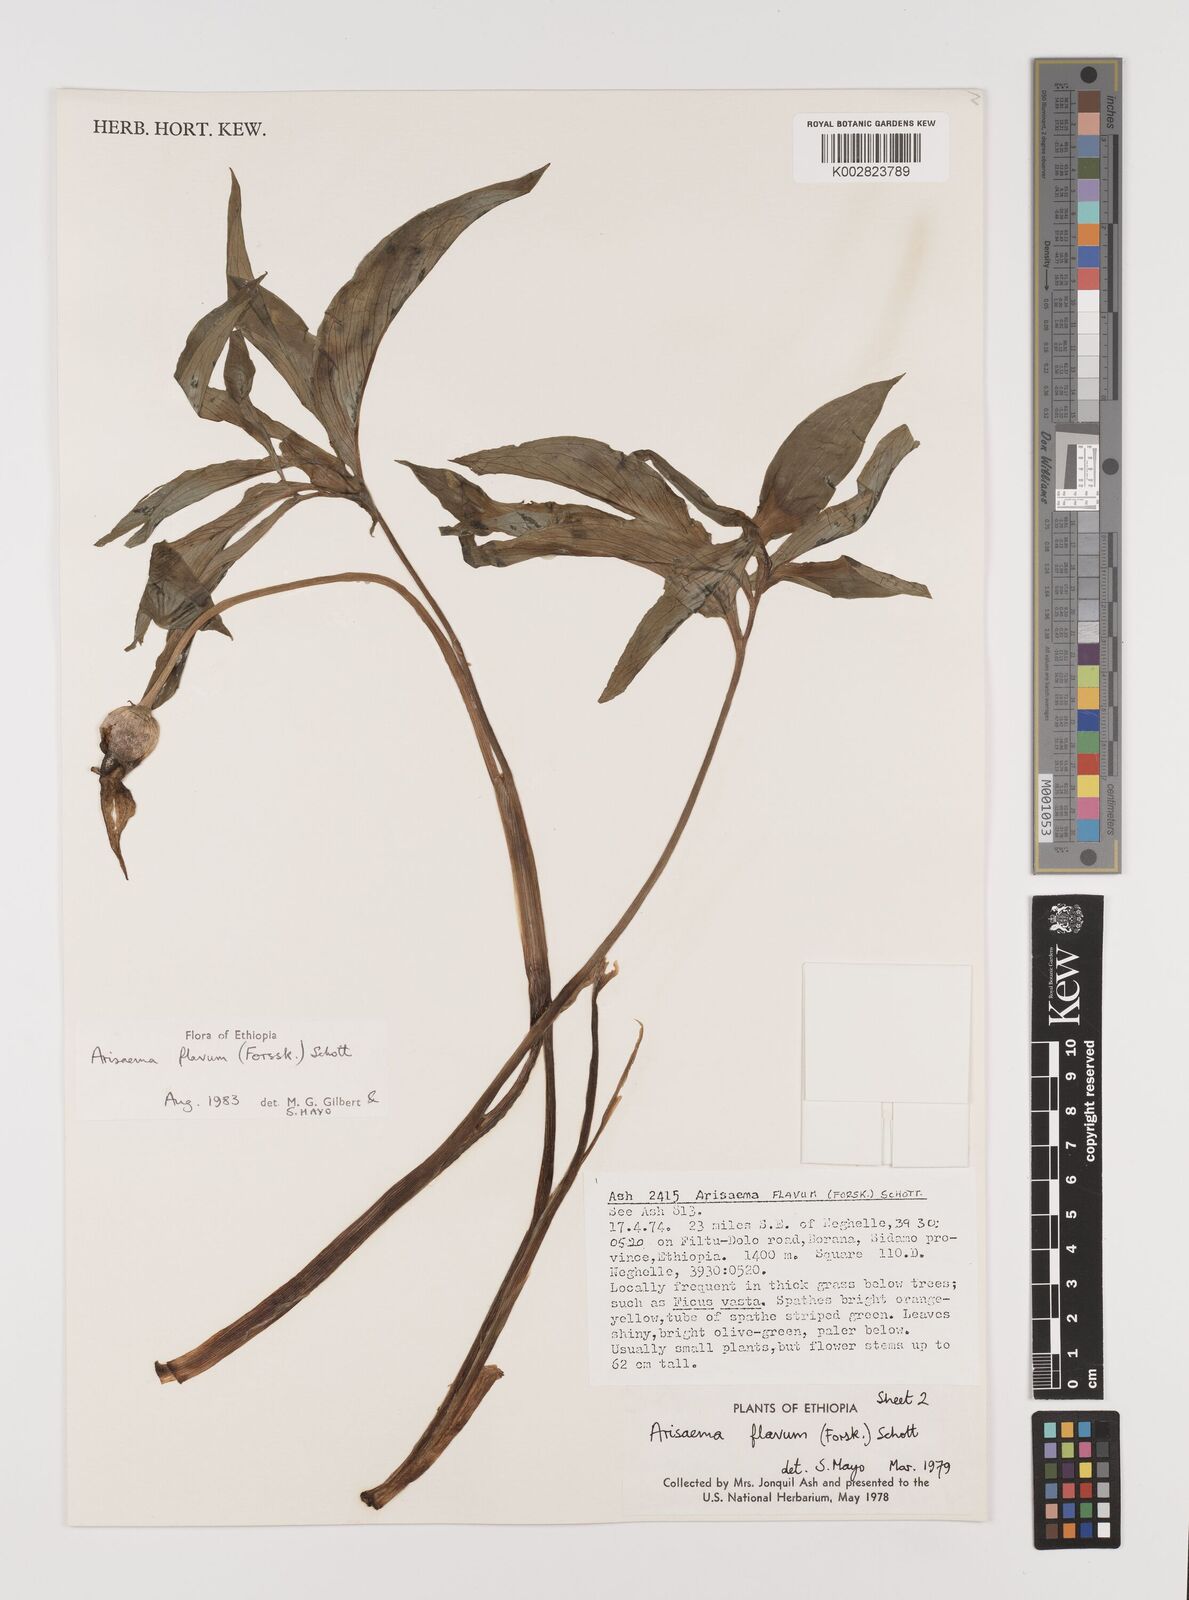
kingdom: Plantae
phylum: Tracheophyta
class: Liliopsida
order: Alismatales
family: Araceae
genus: Arisaema
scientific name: Arisaema flavum
